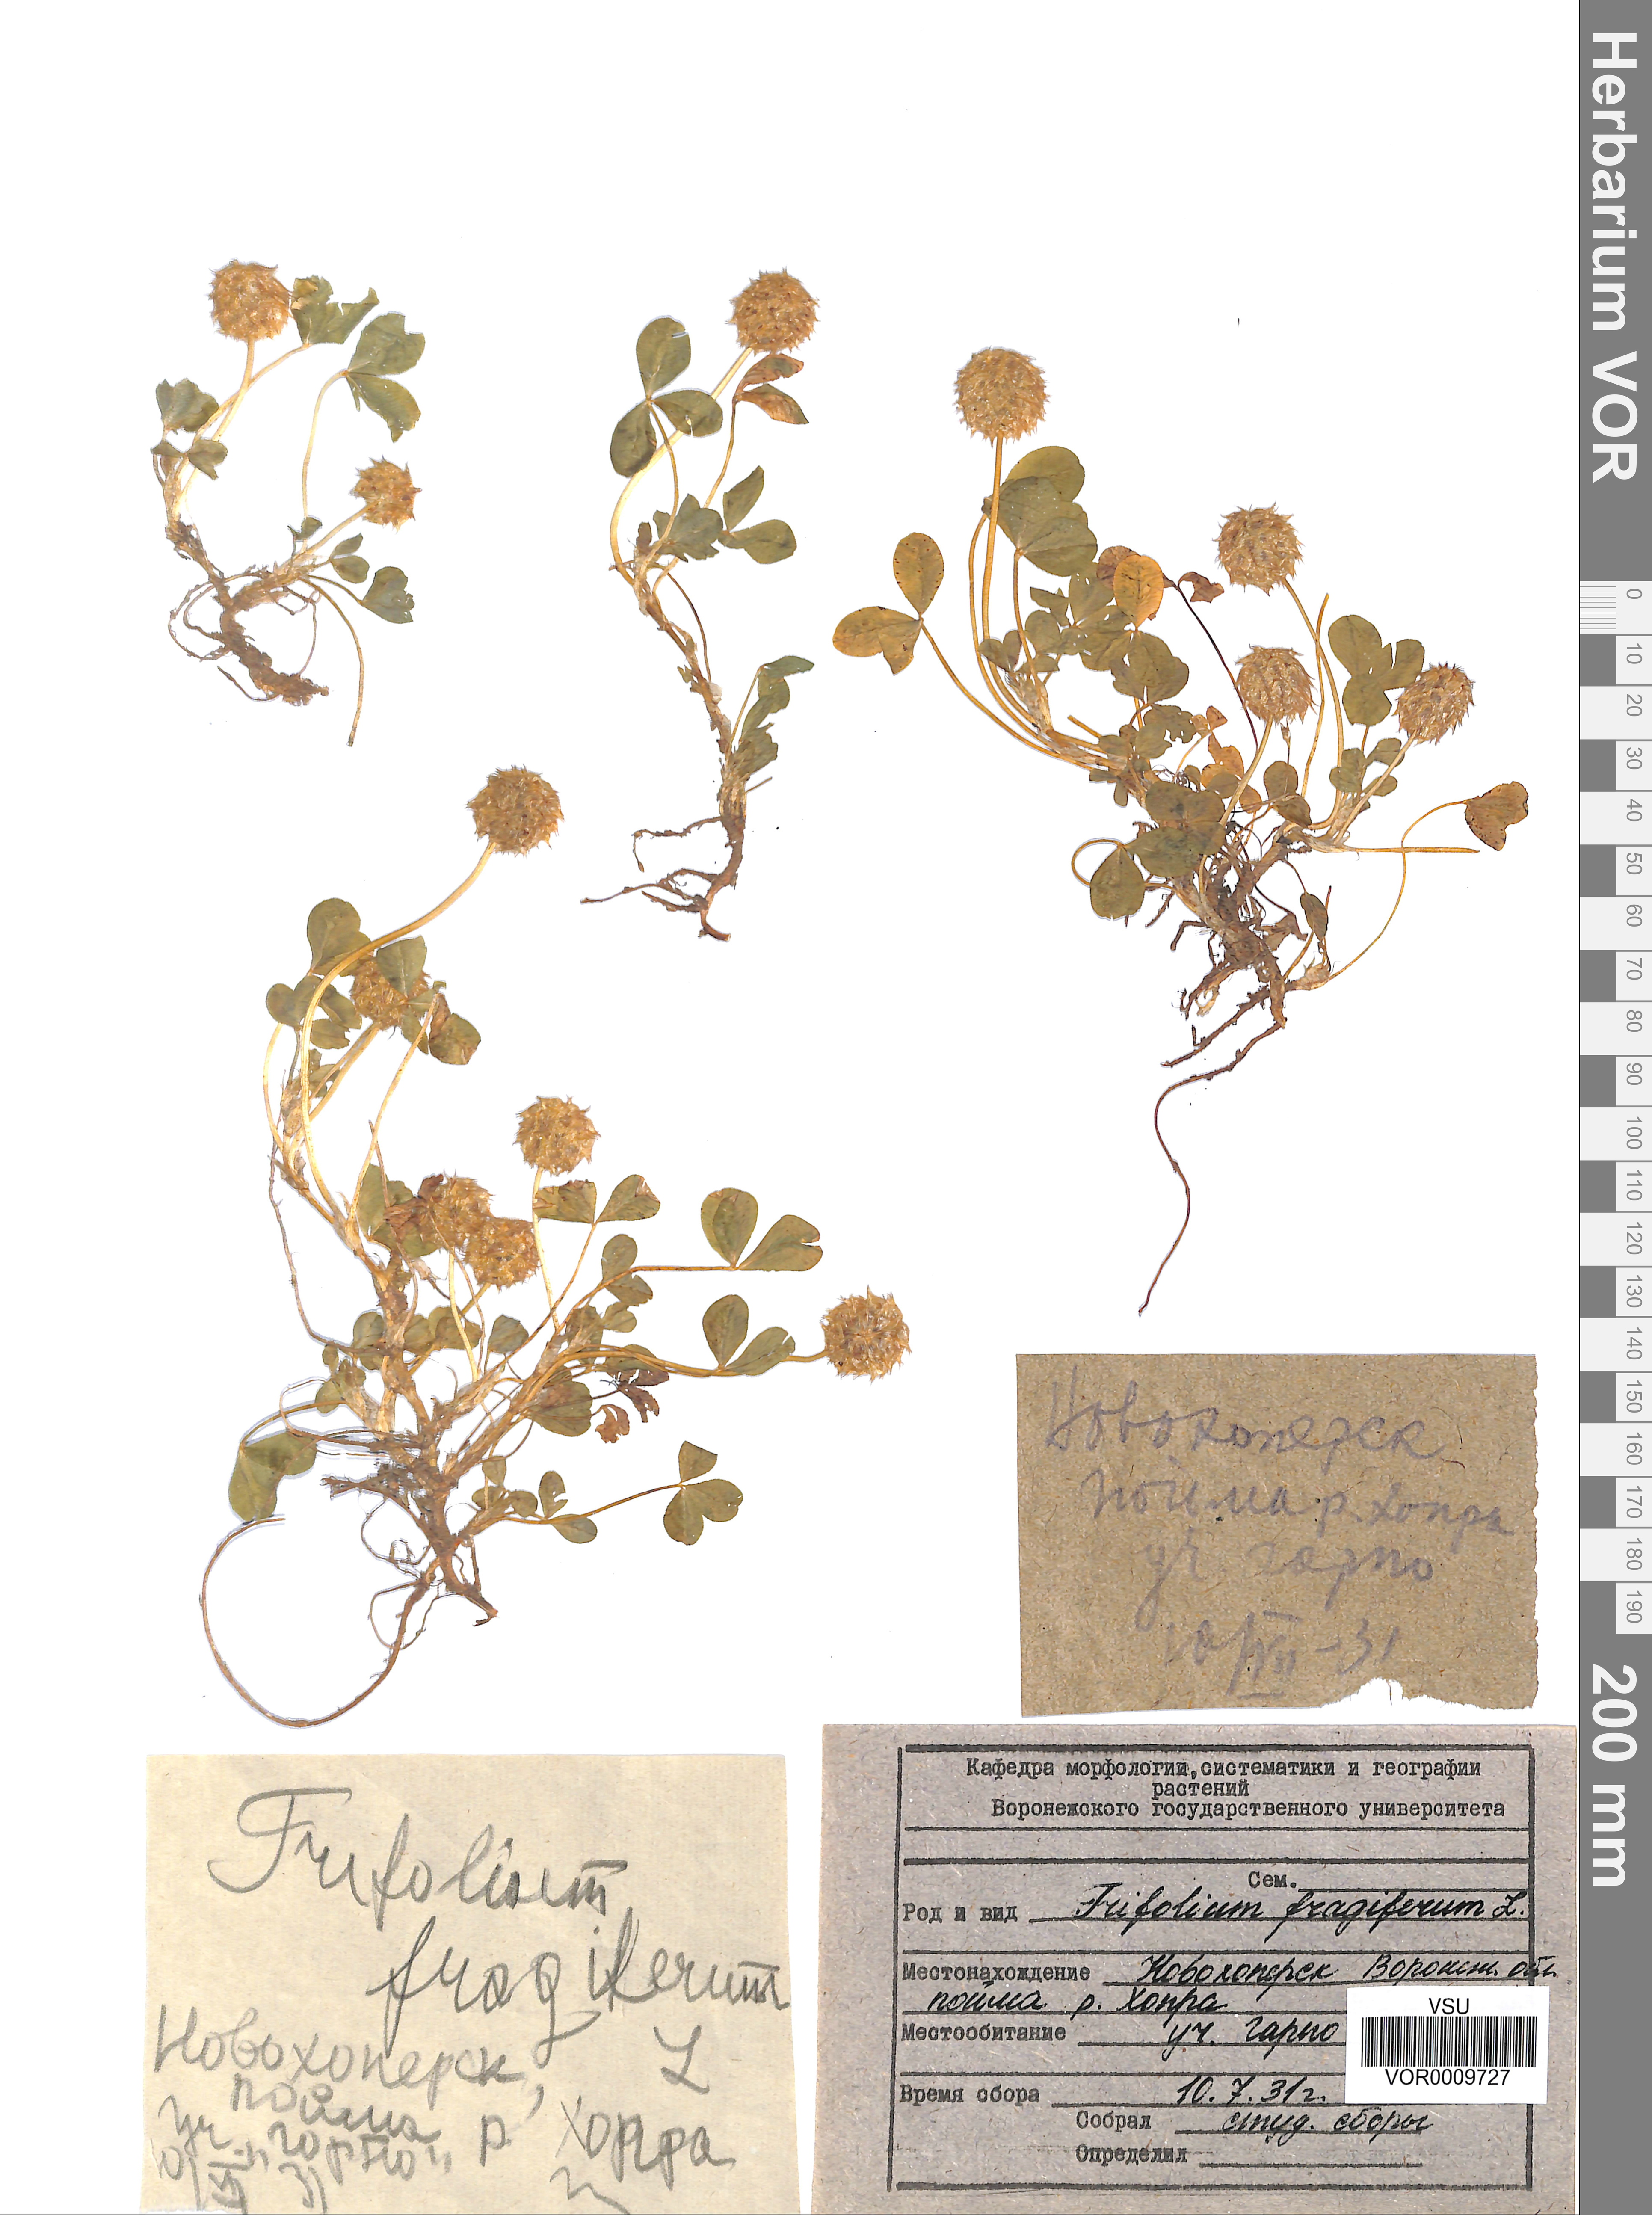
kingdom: Plantae
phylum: Tracheophyta
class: Magnoliopsida
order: Fabales
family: Fabaceae
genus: Trifolium
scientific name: Trifolium fragiferum
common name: Strawberry clover
